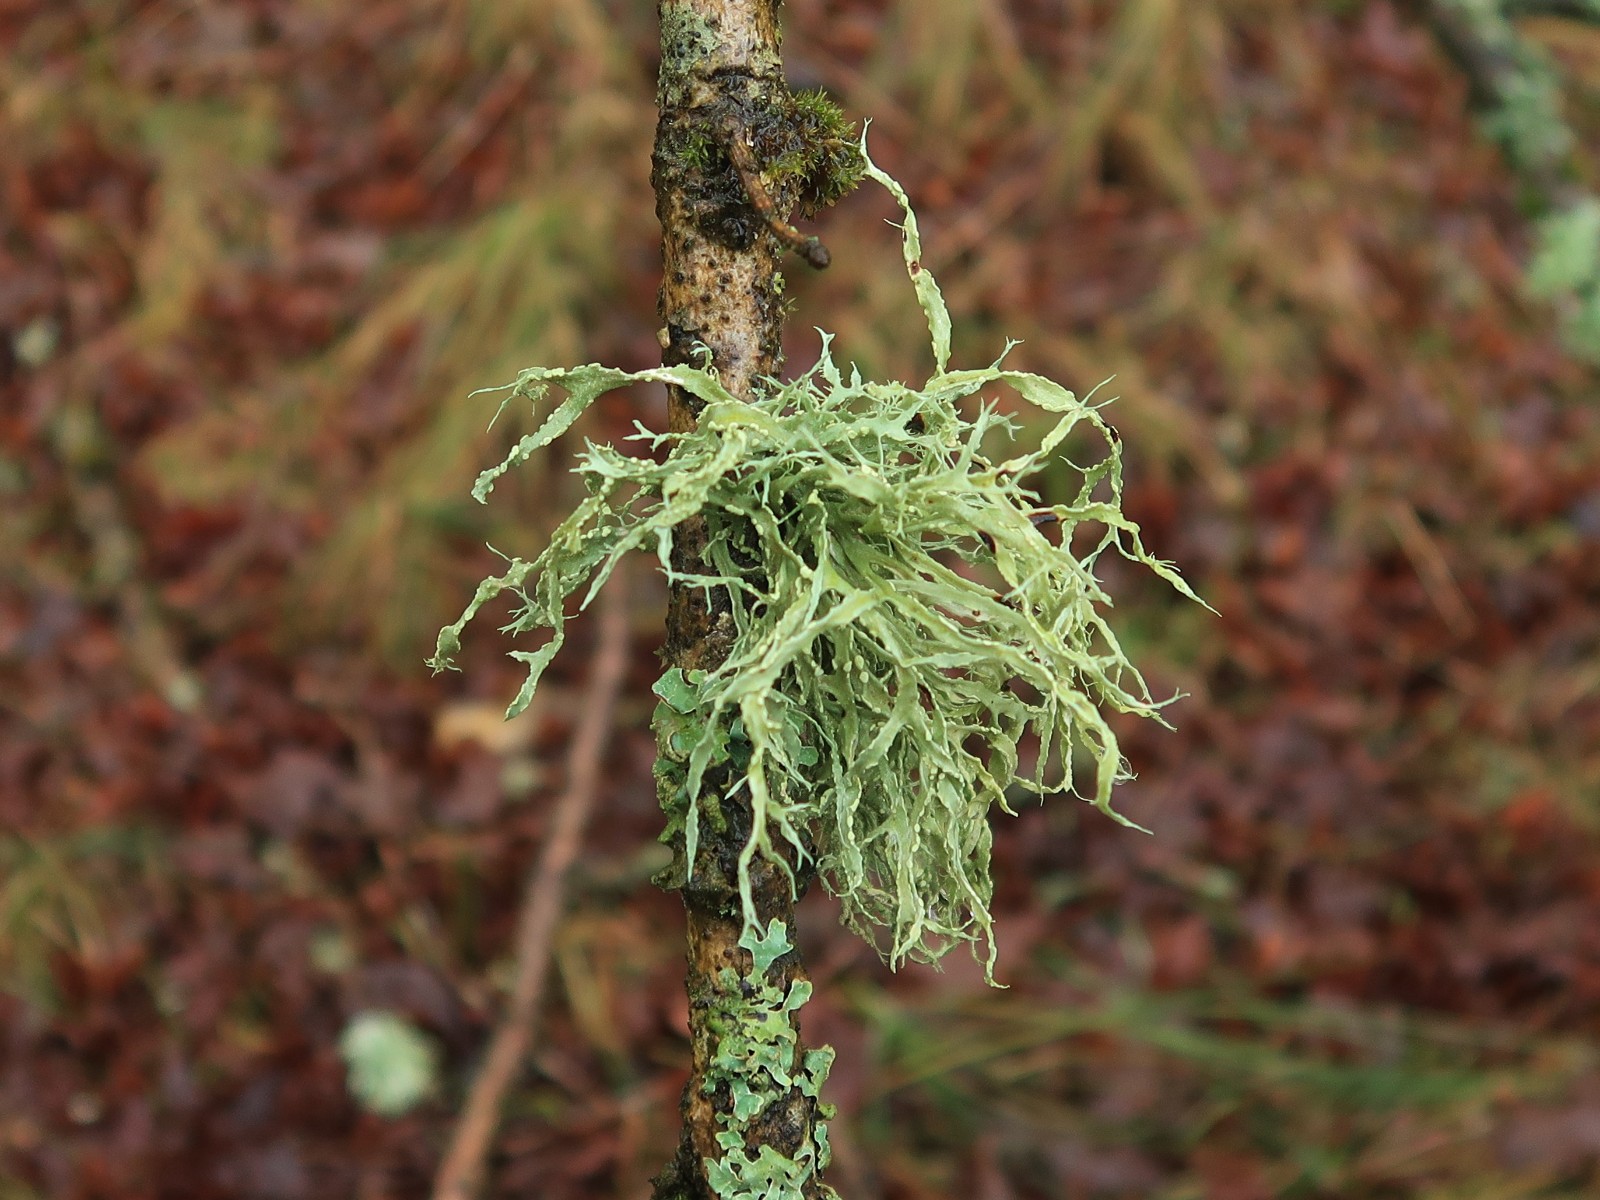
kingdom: Fungi
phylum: Ascomycota
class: Lecanoromycetes
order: Lecanorales
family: Ramalinaceae
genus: Ramalina
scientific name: Ramalina farinacea
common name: melet grenlav
